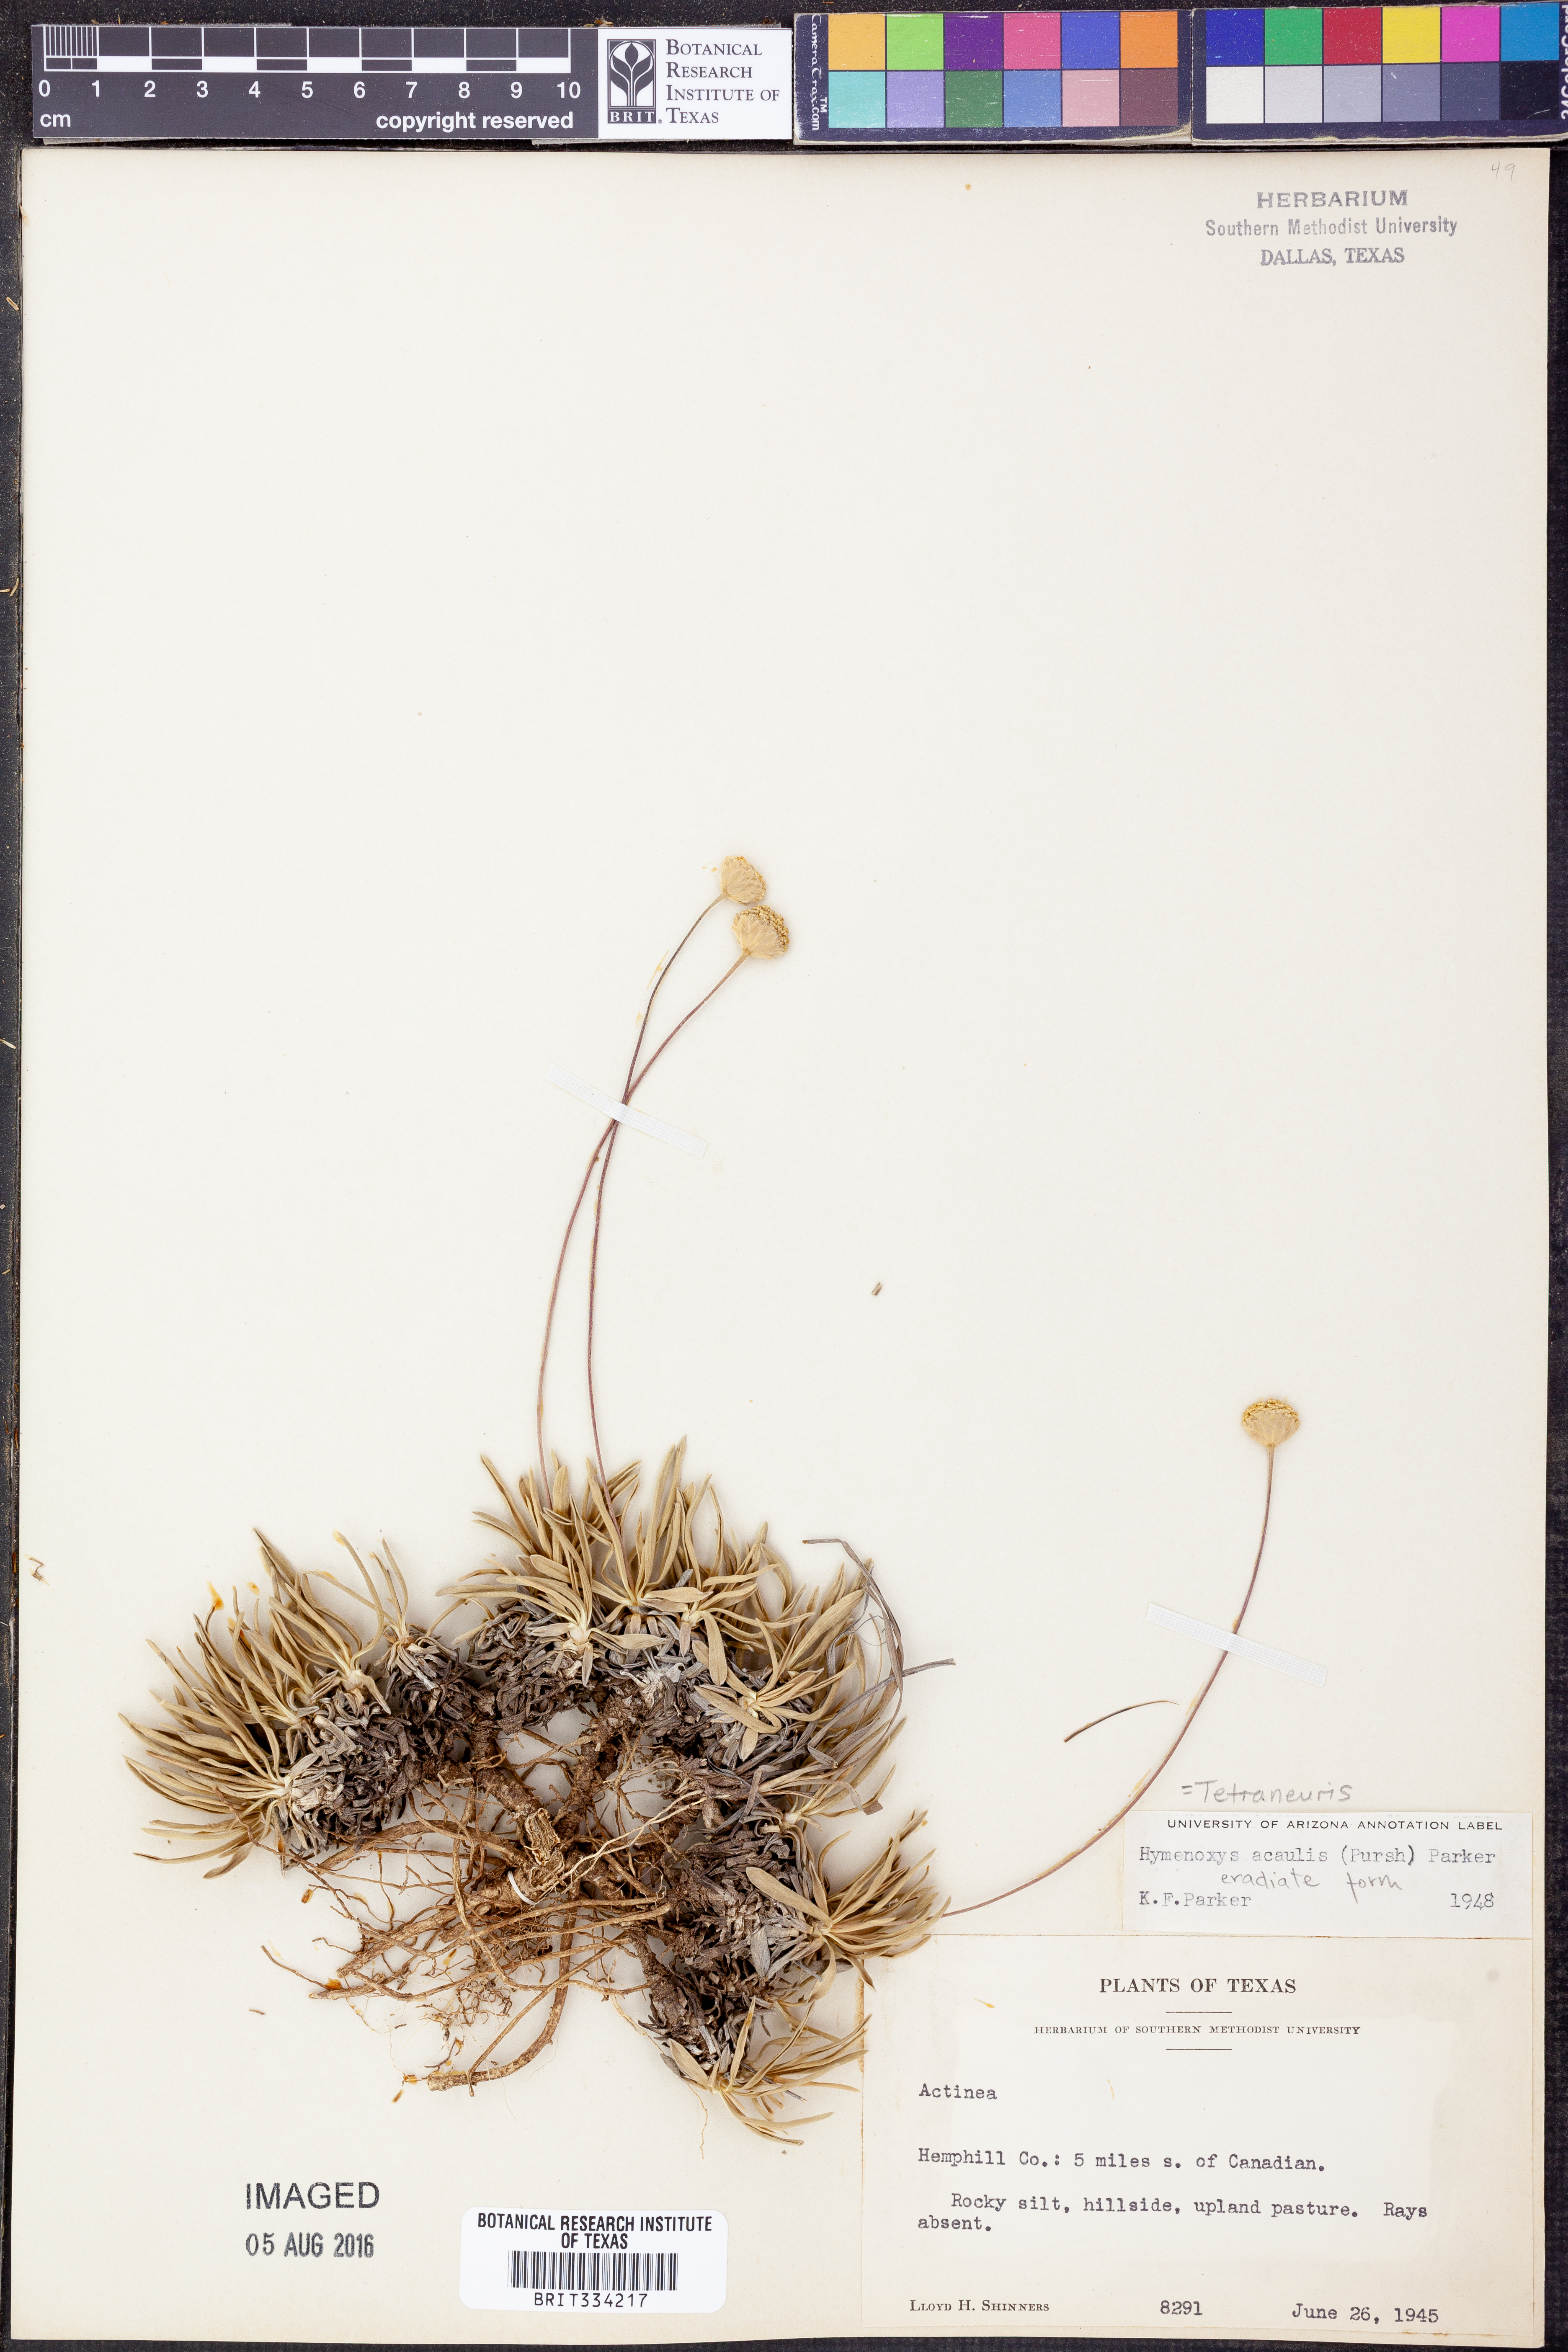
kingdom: Plantae
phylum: Tracheophyta
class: Magnoliopsida
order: Asterales
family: Asteraceae
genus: Tetraneuris
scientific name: Tetraneuris acaulis
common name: Butte marigold
